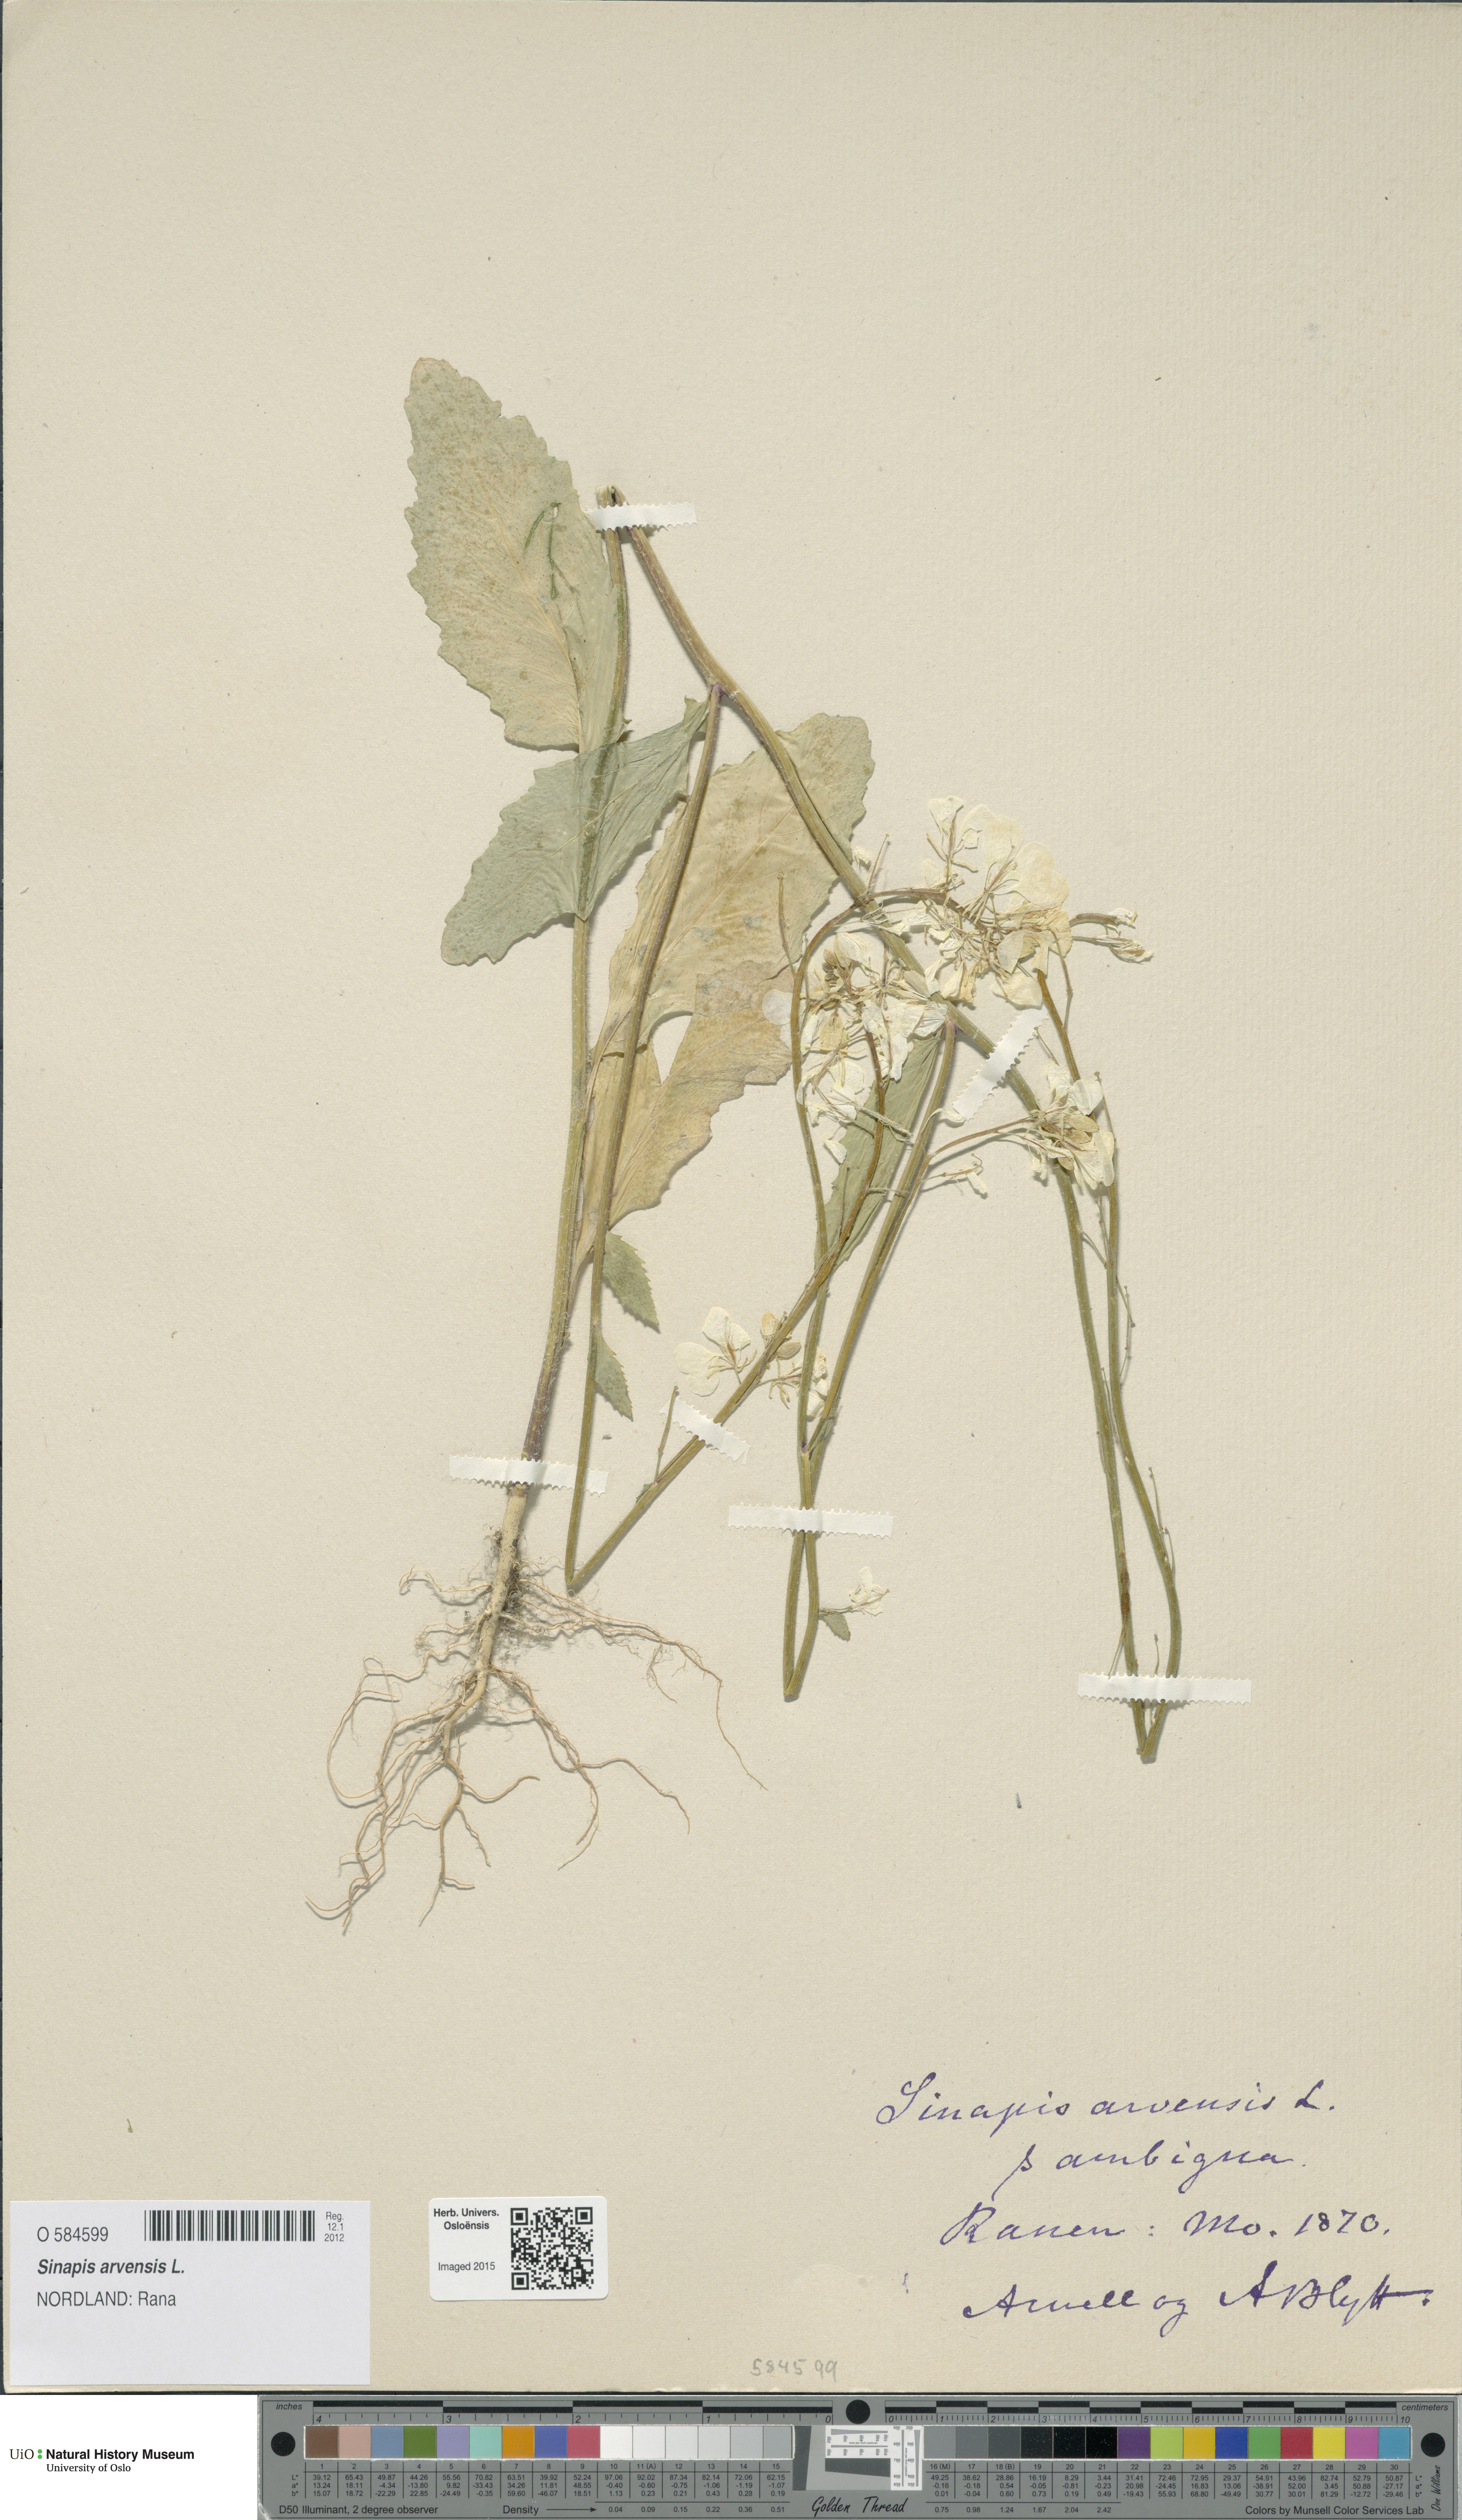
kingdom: Plantae
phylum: Tracheophyta
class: Magnoliopsida
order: Brassicales
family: Brassicaceae
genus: Sinapis
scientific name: Sinapis arvensis
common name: Charlock
